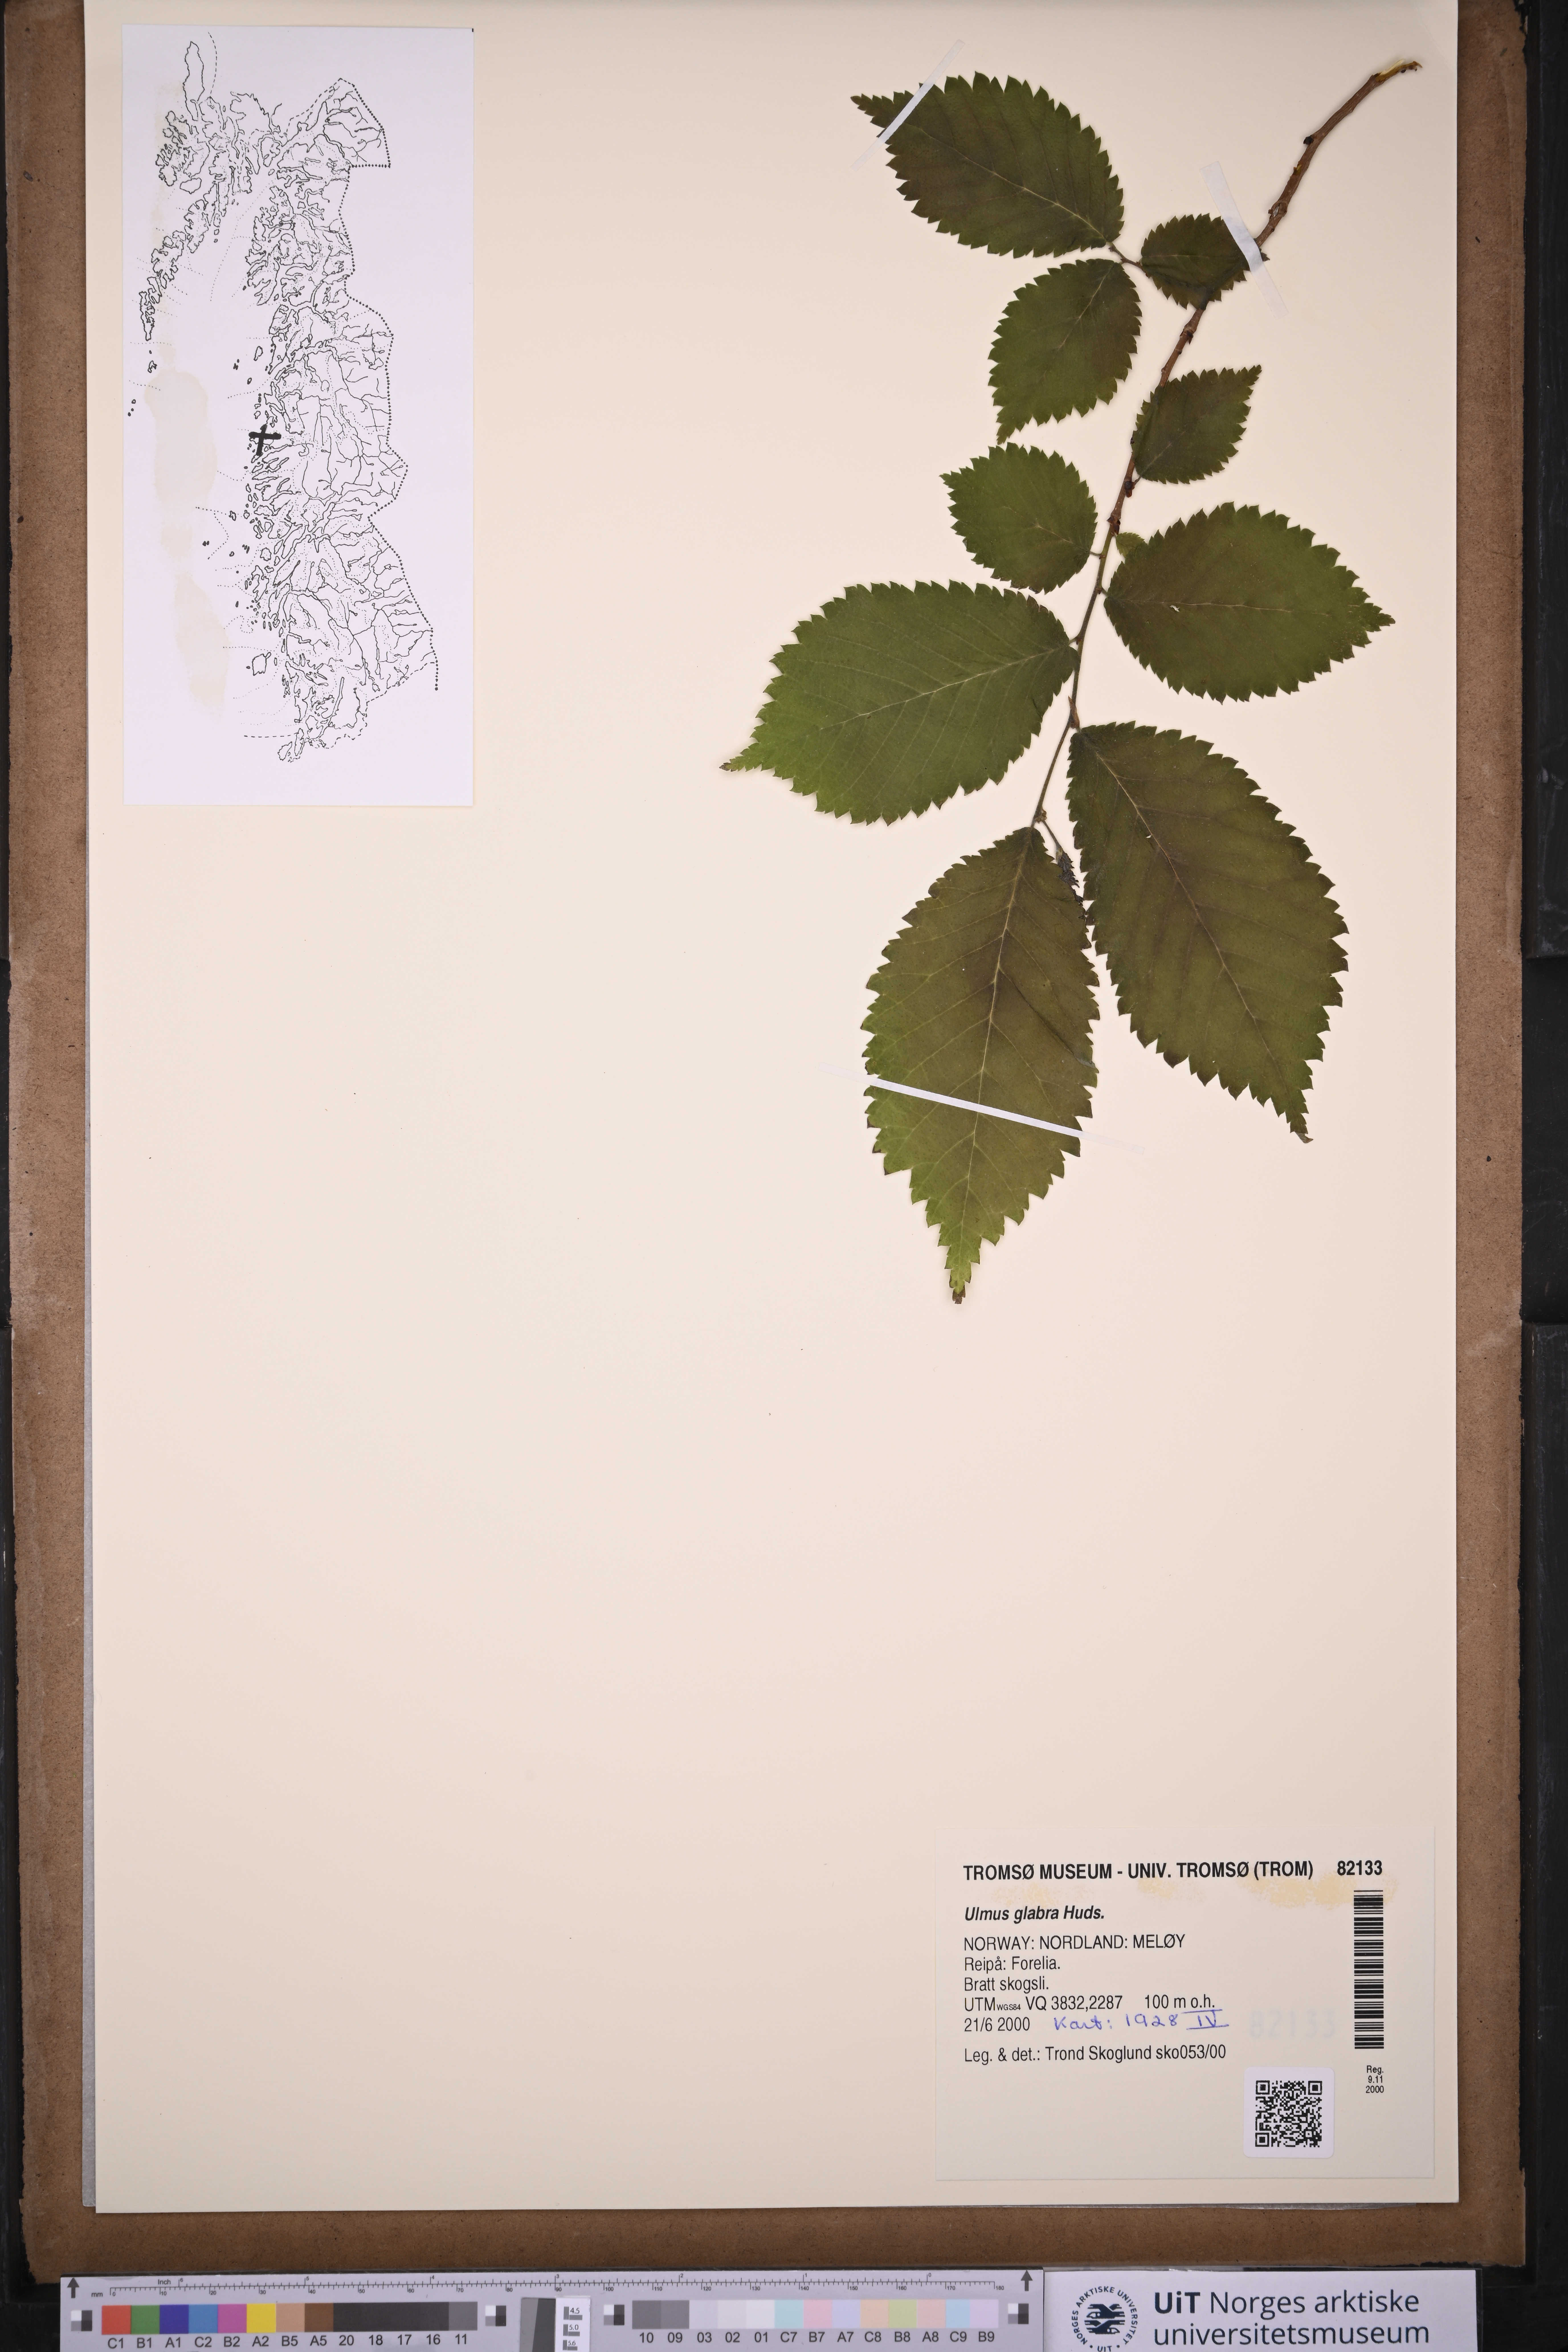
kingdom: Plantae
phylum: Tracheophyta
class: Magnoliopsida
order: Rosales
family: Ulmaceae
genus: Ulmus
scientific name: Ulmus glabra
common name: Wych elm
